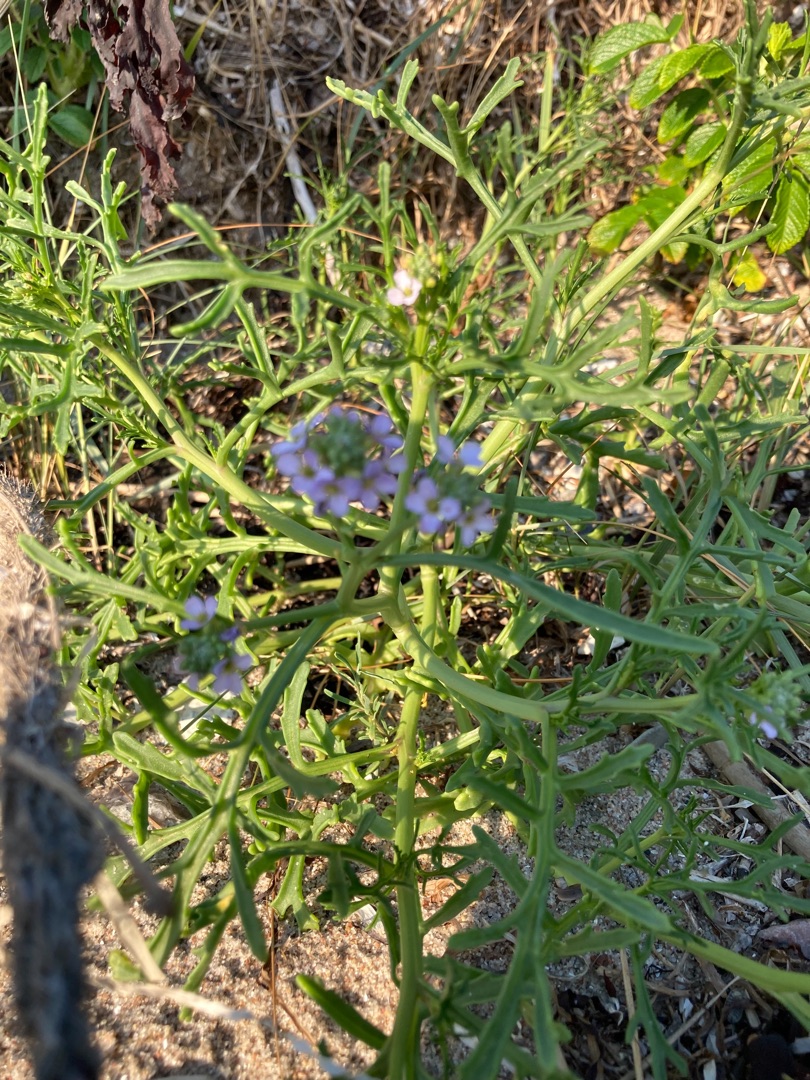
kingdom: Plantae
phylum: Tracheophyta
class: Magnoliopsida
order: Brassicales
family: Brassicaceae
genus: Cakile
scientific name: Cakile maritima
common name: Strandsennep
